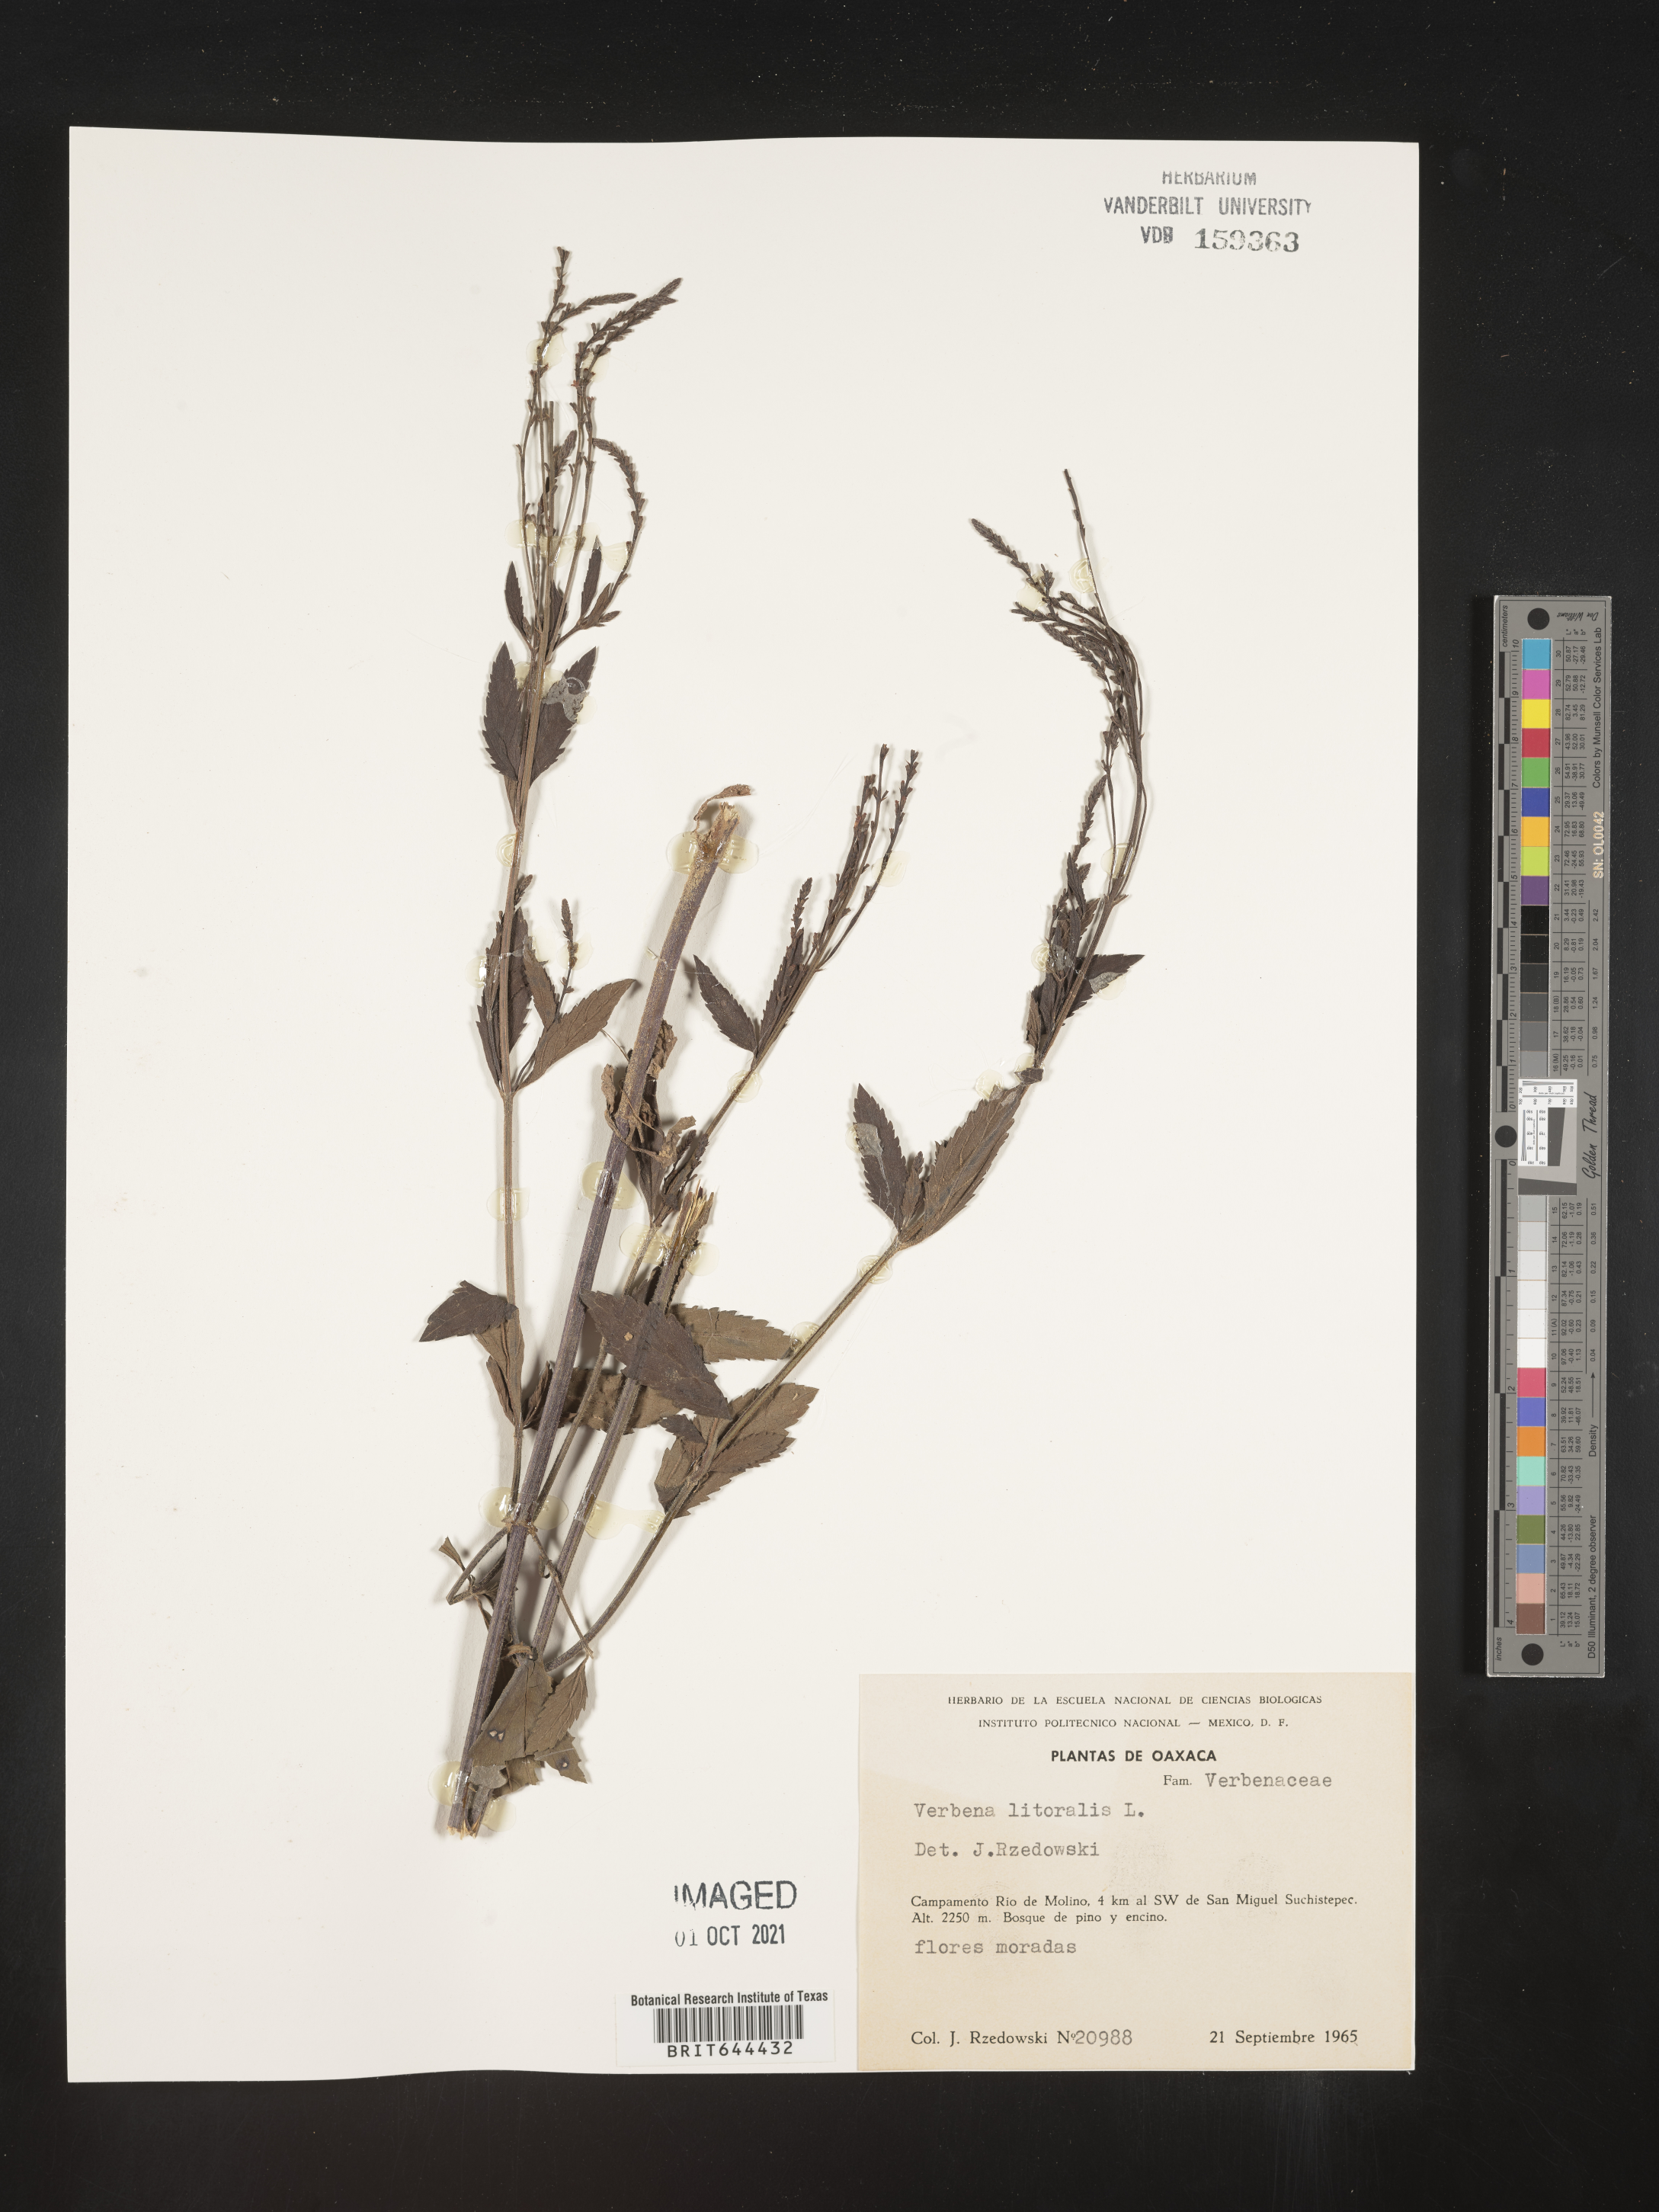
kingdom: Plantae
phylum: Tracheophyta
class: Magnoliopsida
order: Lamiales
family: Verbenaceae
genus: Verbena
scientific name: Verbena
